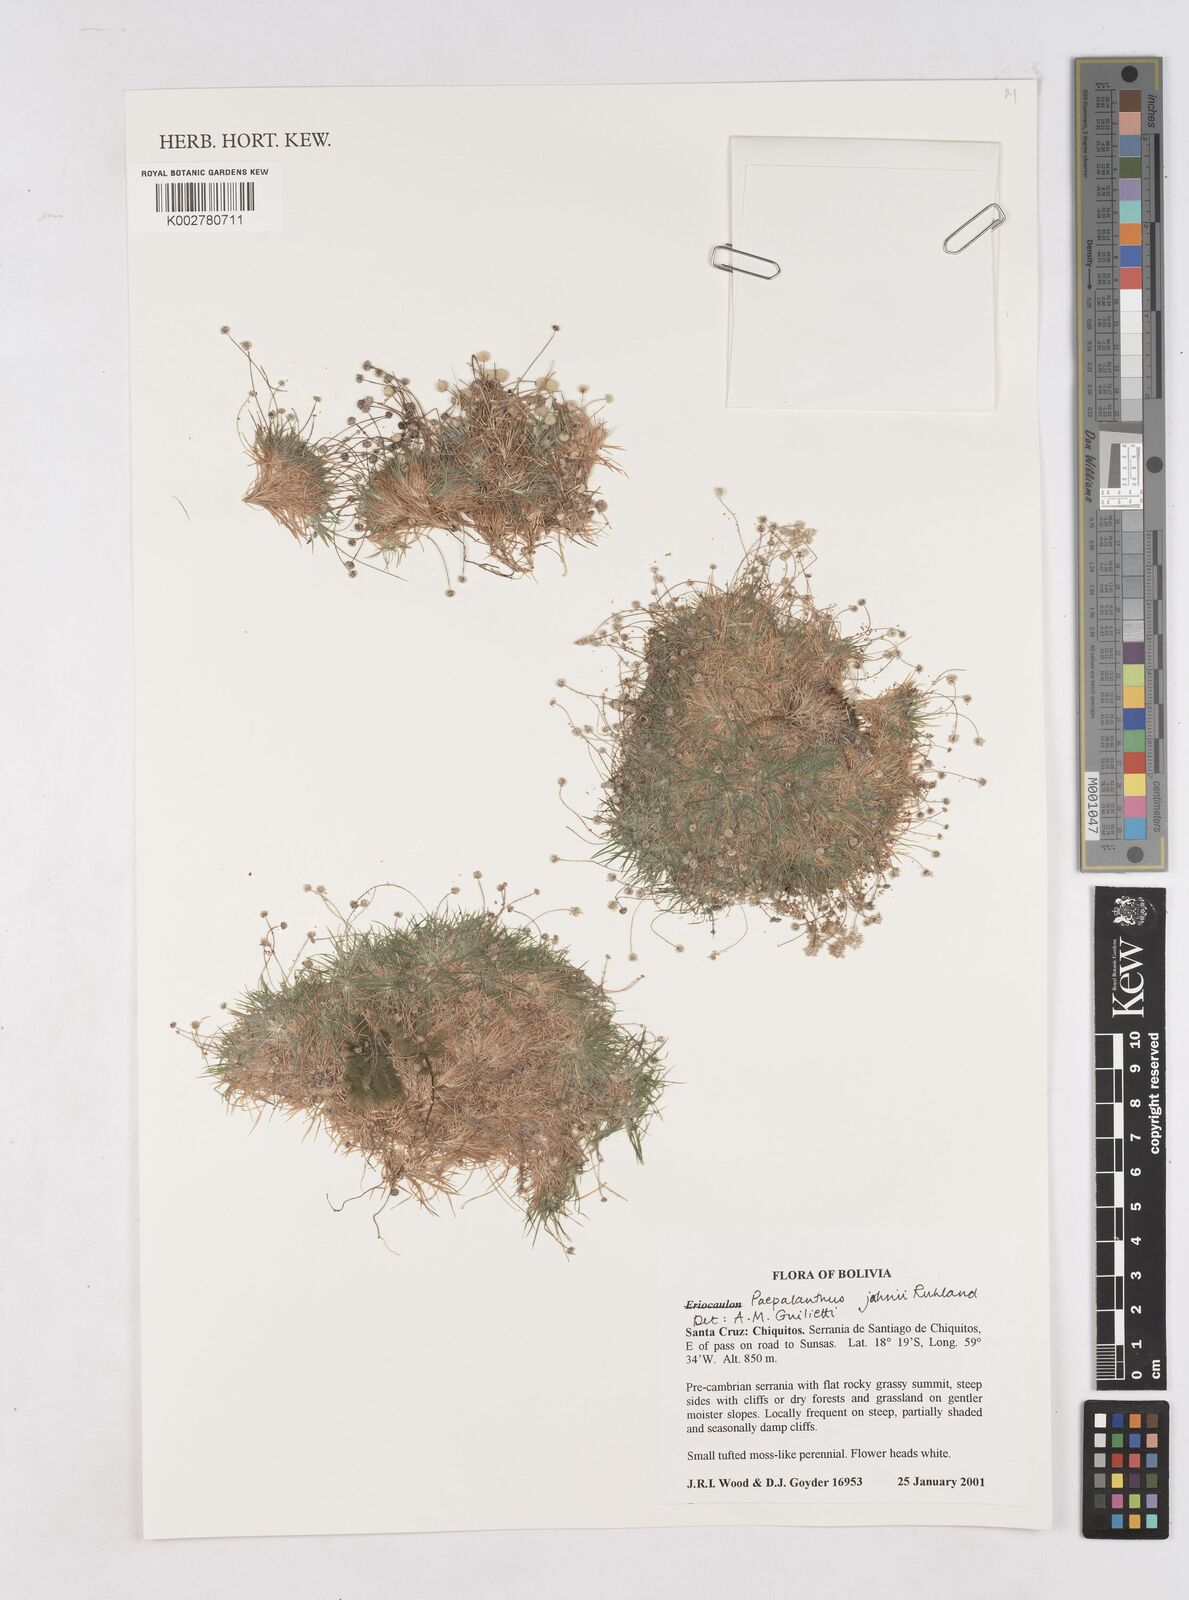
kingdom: Plantae
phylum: Tracheophyta
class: Liliopsida
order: Poales
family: Eriocaulaceae
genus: Paepalanthus
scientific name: Paepalanthus supinus
